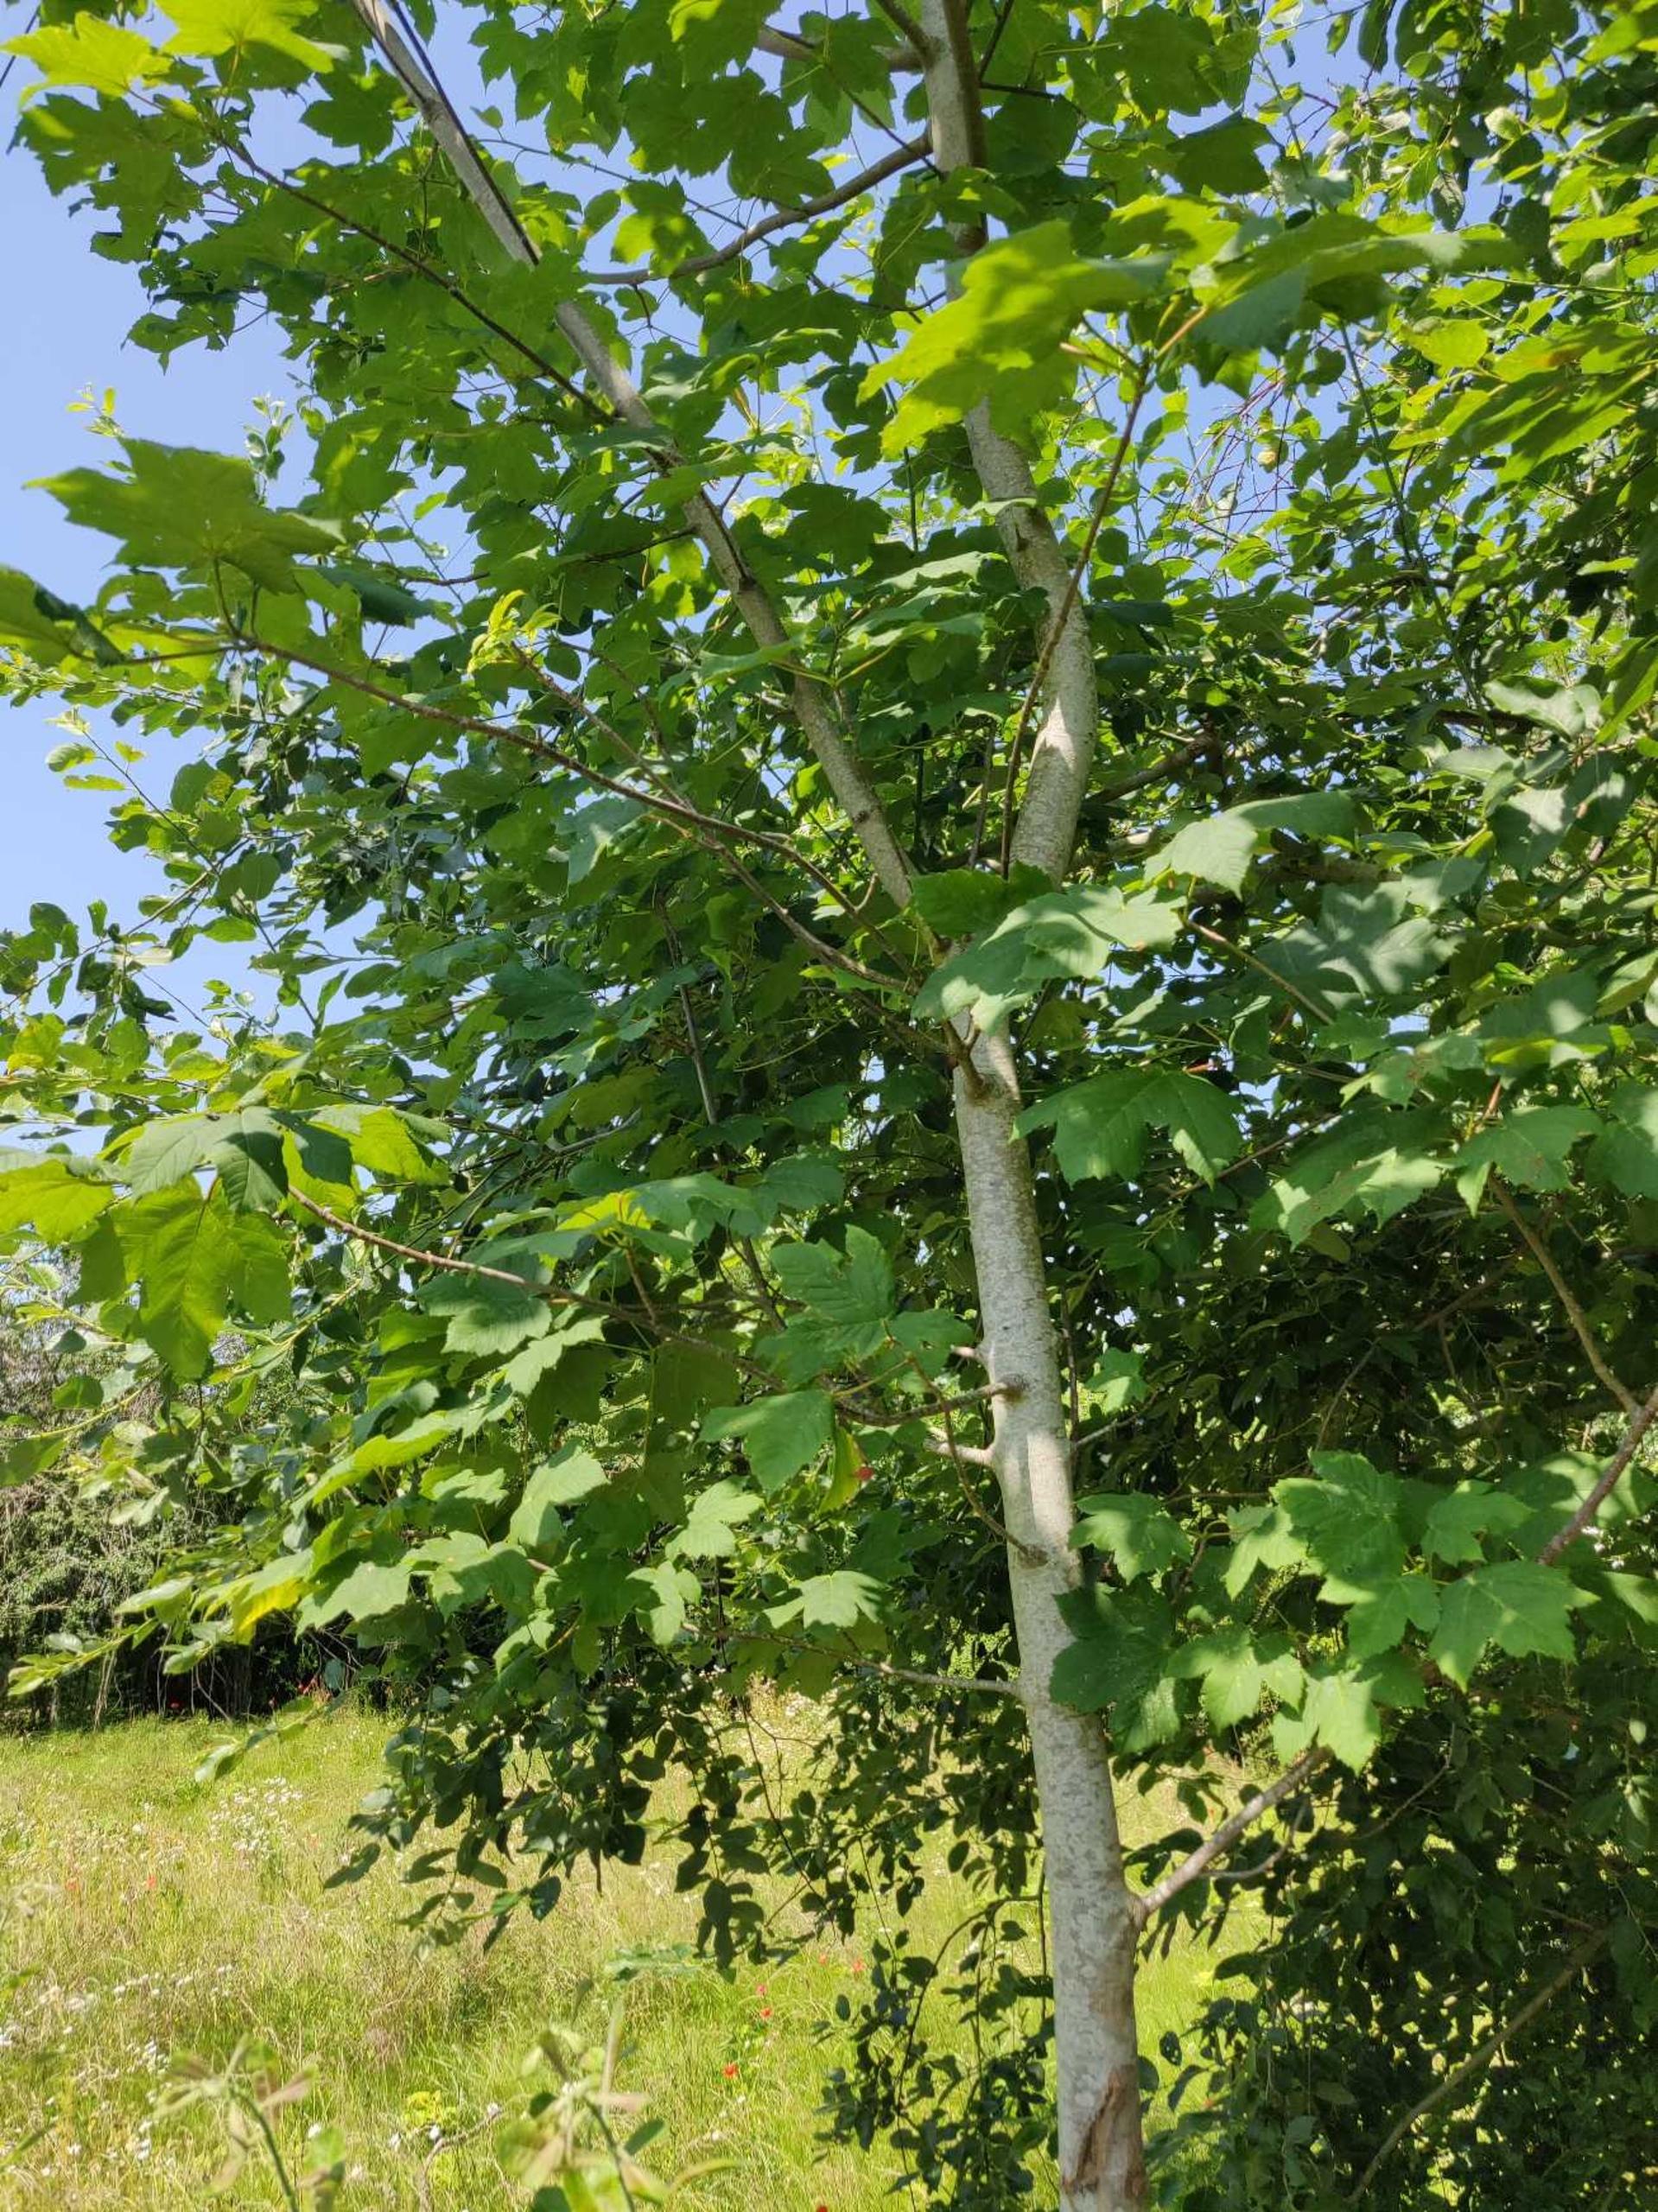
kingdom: Plantae
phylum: Tracheophyta
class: Magnoliopsida
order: Sapindales
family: Sapindaceae
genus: Acer
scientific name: Acer pseudoplatanus
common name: Ahorn
